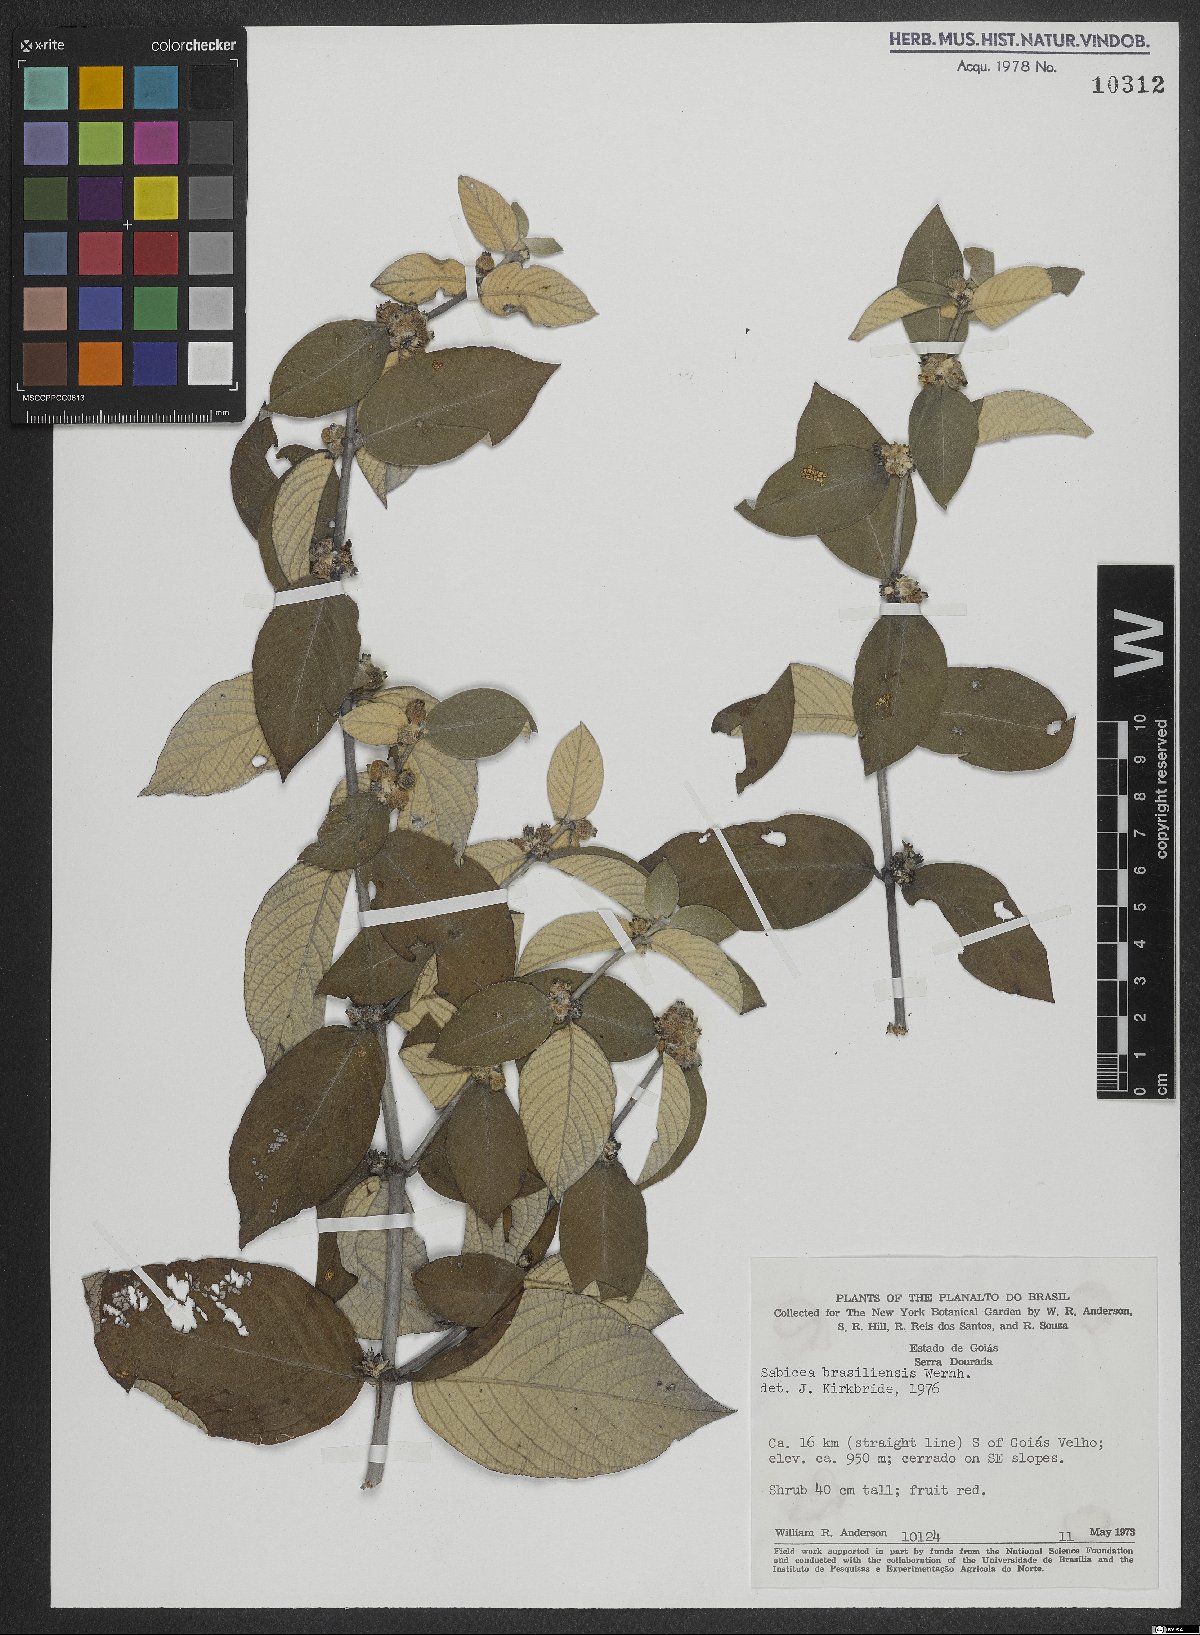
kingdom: Plantae
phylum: Tracheophyta
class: Magnoliopsida
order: Gentianales
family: Rubiaceae
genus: Sabicea
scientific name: Sabicea brasiliensis
